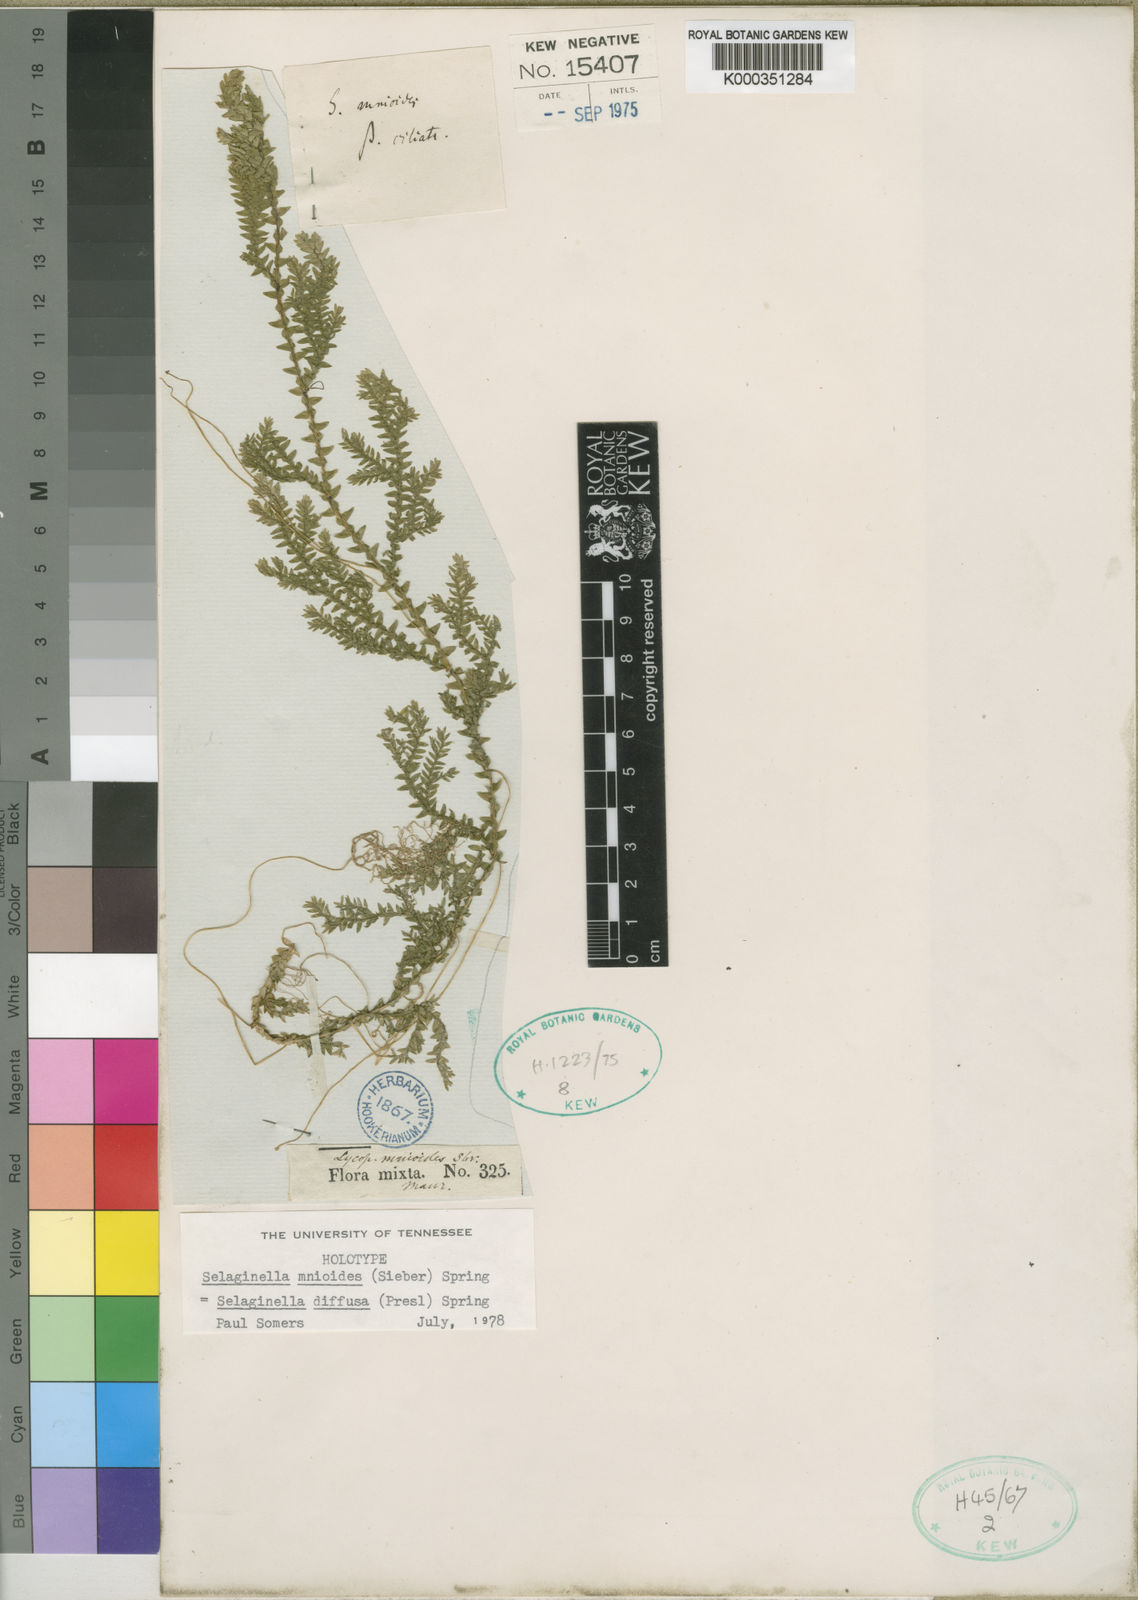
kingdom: Plantae
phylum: Tracheophyta
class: Lycopodiopsida
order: Selaginellales
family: Selaginellaceae
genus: Selaginella
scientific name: Selaginella
